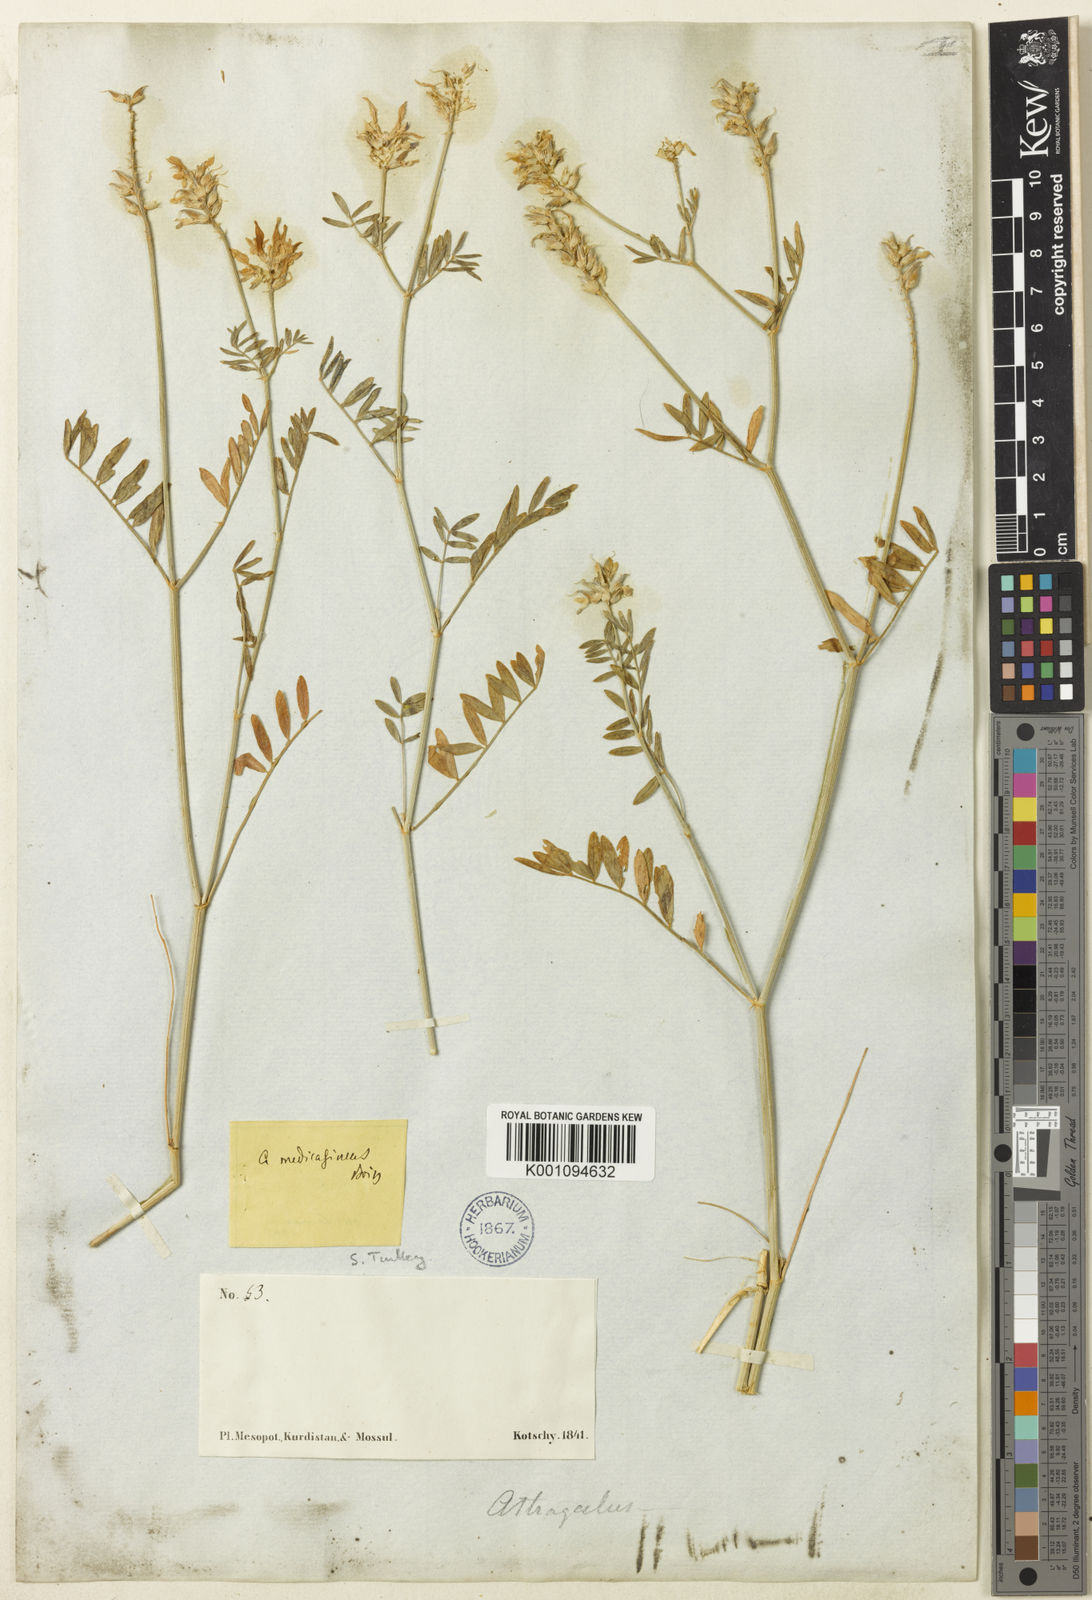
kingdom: Plantae
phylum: Tracheophyta
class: Magnoliopsida
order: Fabales
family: Fabaceae
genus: Astragalus
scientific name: Astragalus
